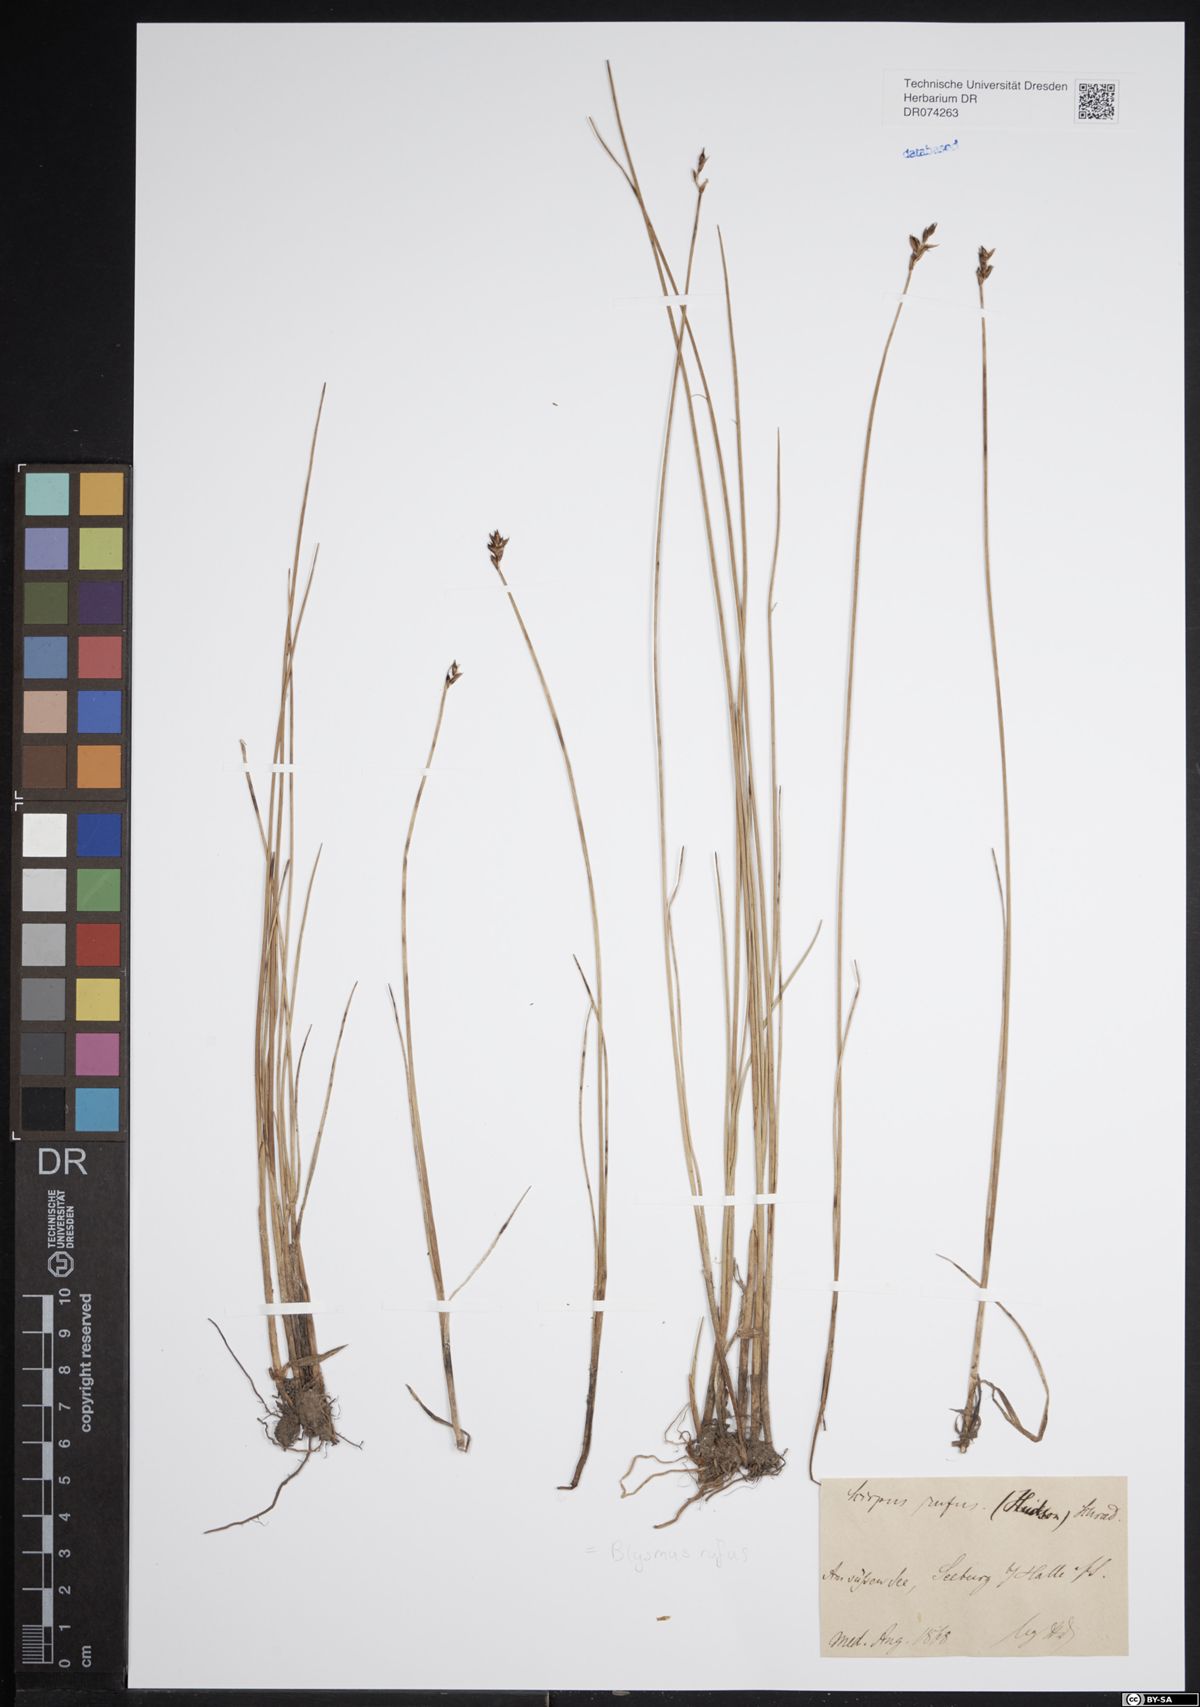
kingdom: Plantae
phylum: Tracheophyta
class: Liliopsida
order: Poales
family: Cyperaceae
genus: Blysmus
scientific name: Blysmus rufus
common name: Saltmarsh flat-sedge
